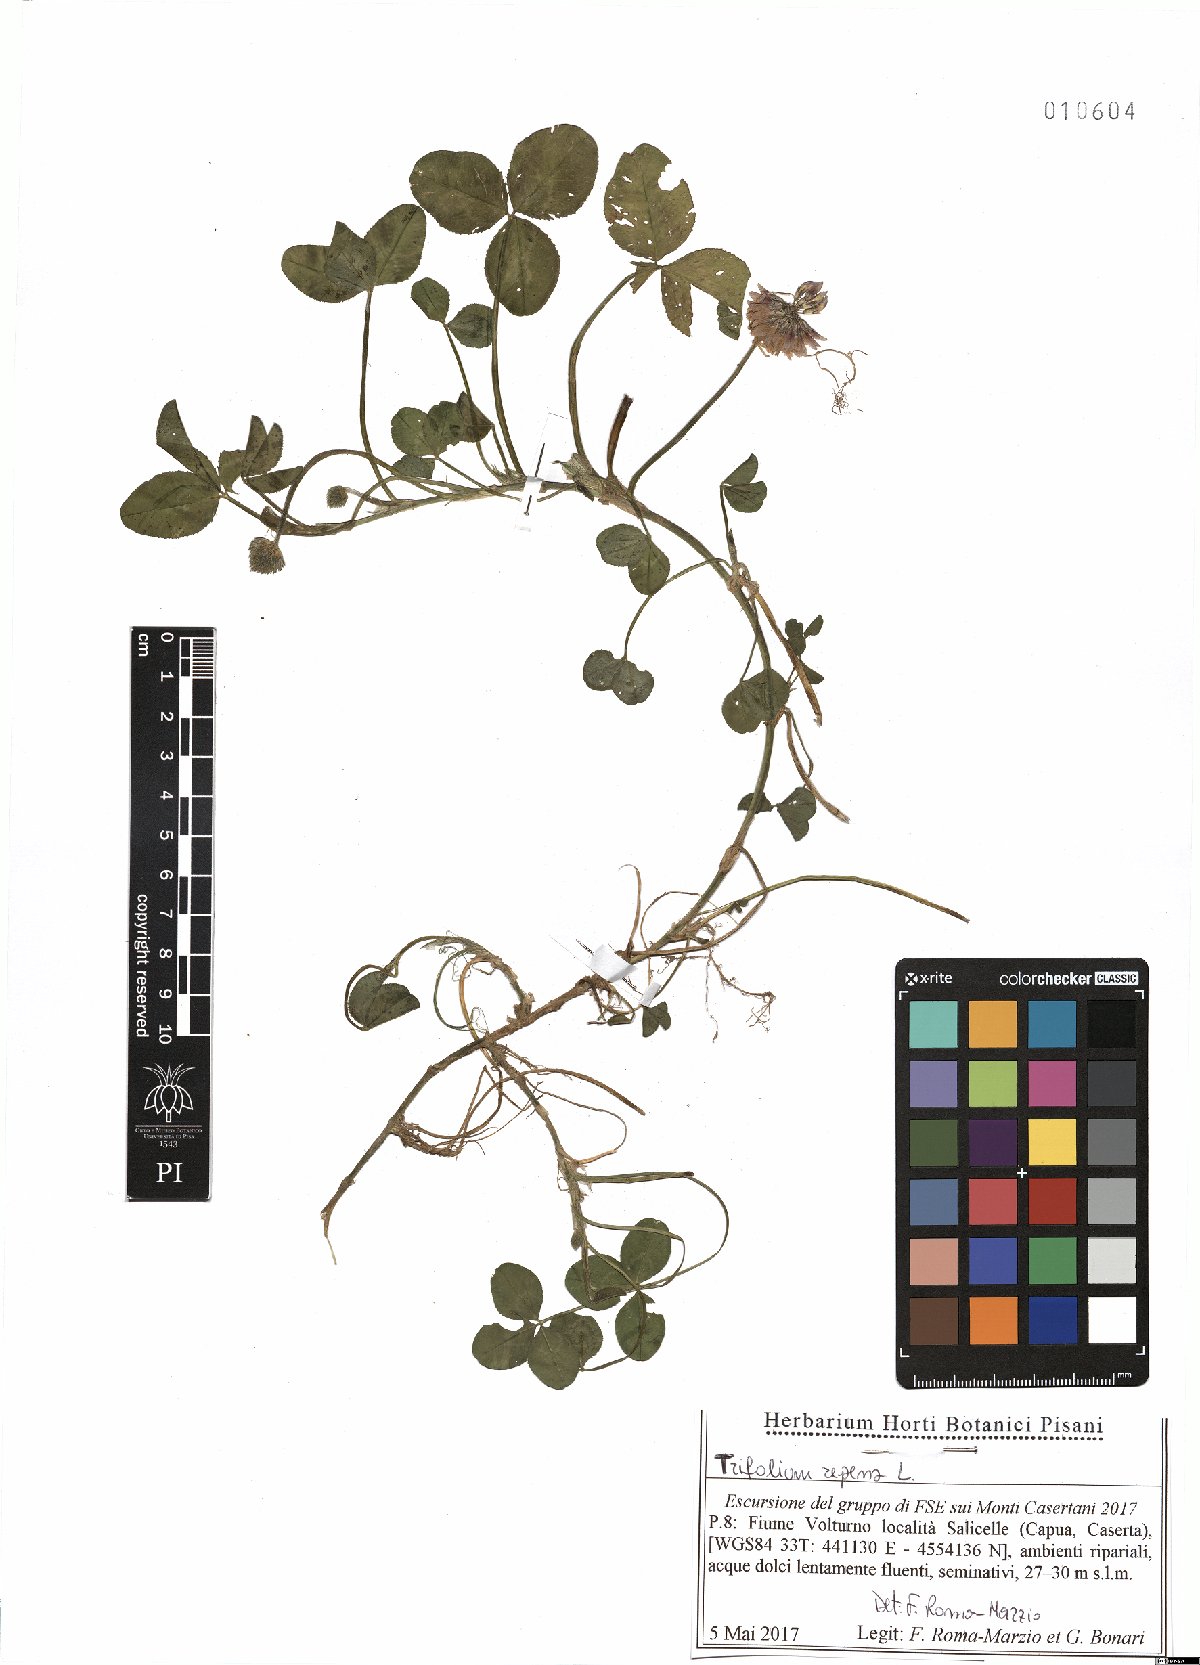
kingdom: Plantae
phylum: Tracheophyta
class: Magnoliopsida
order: Fabales
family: Fabaceae
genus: Trifolium
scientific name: Trifolium repens
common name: White clover
